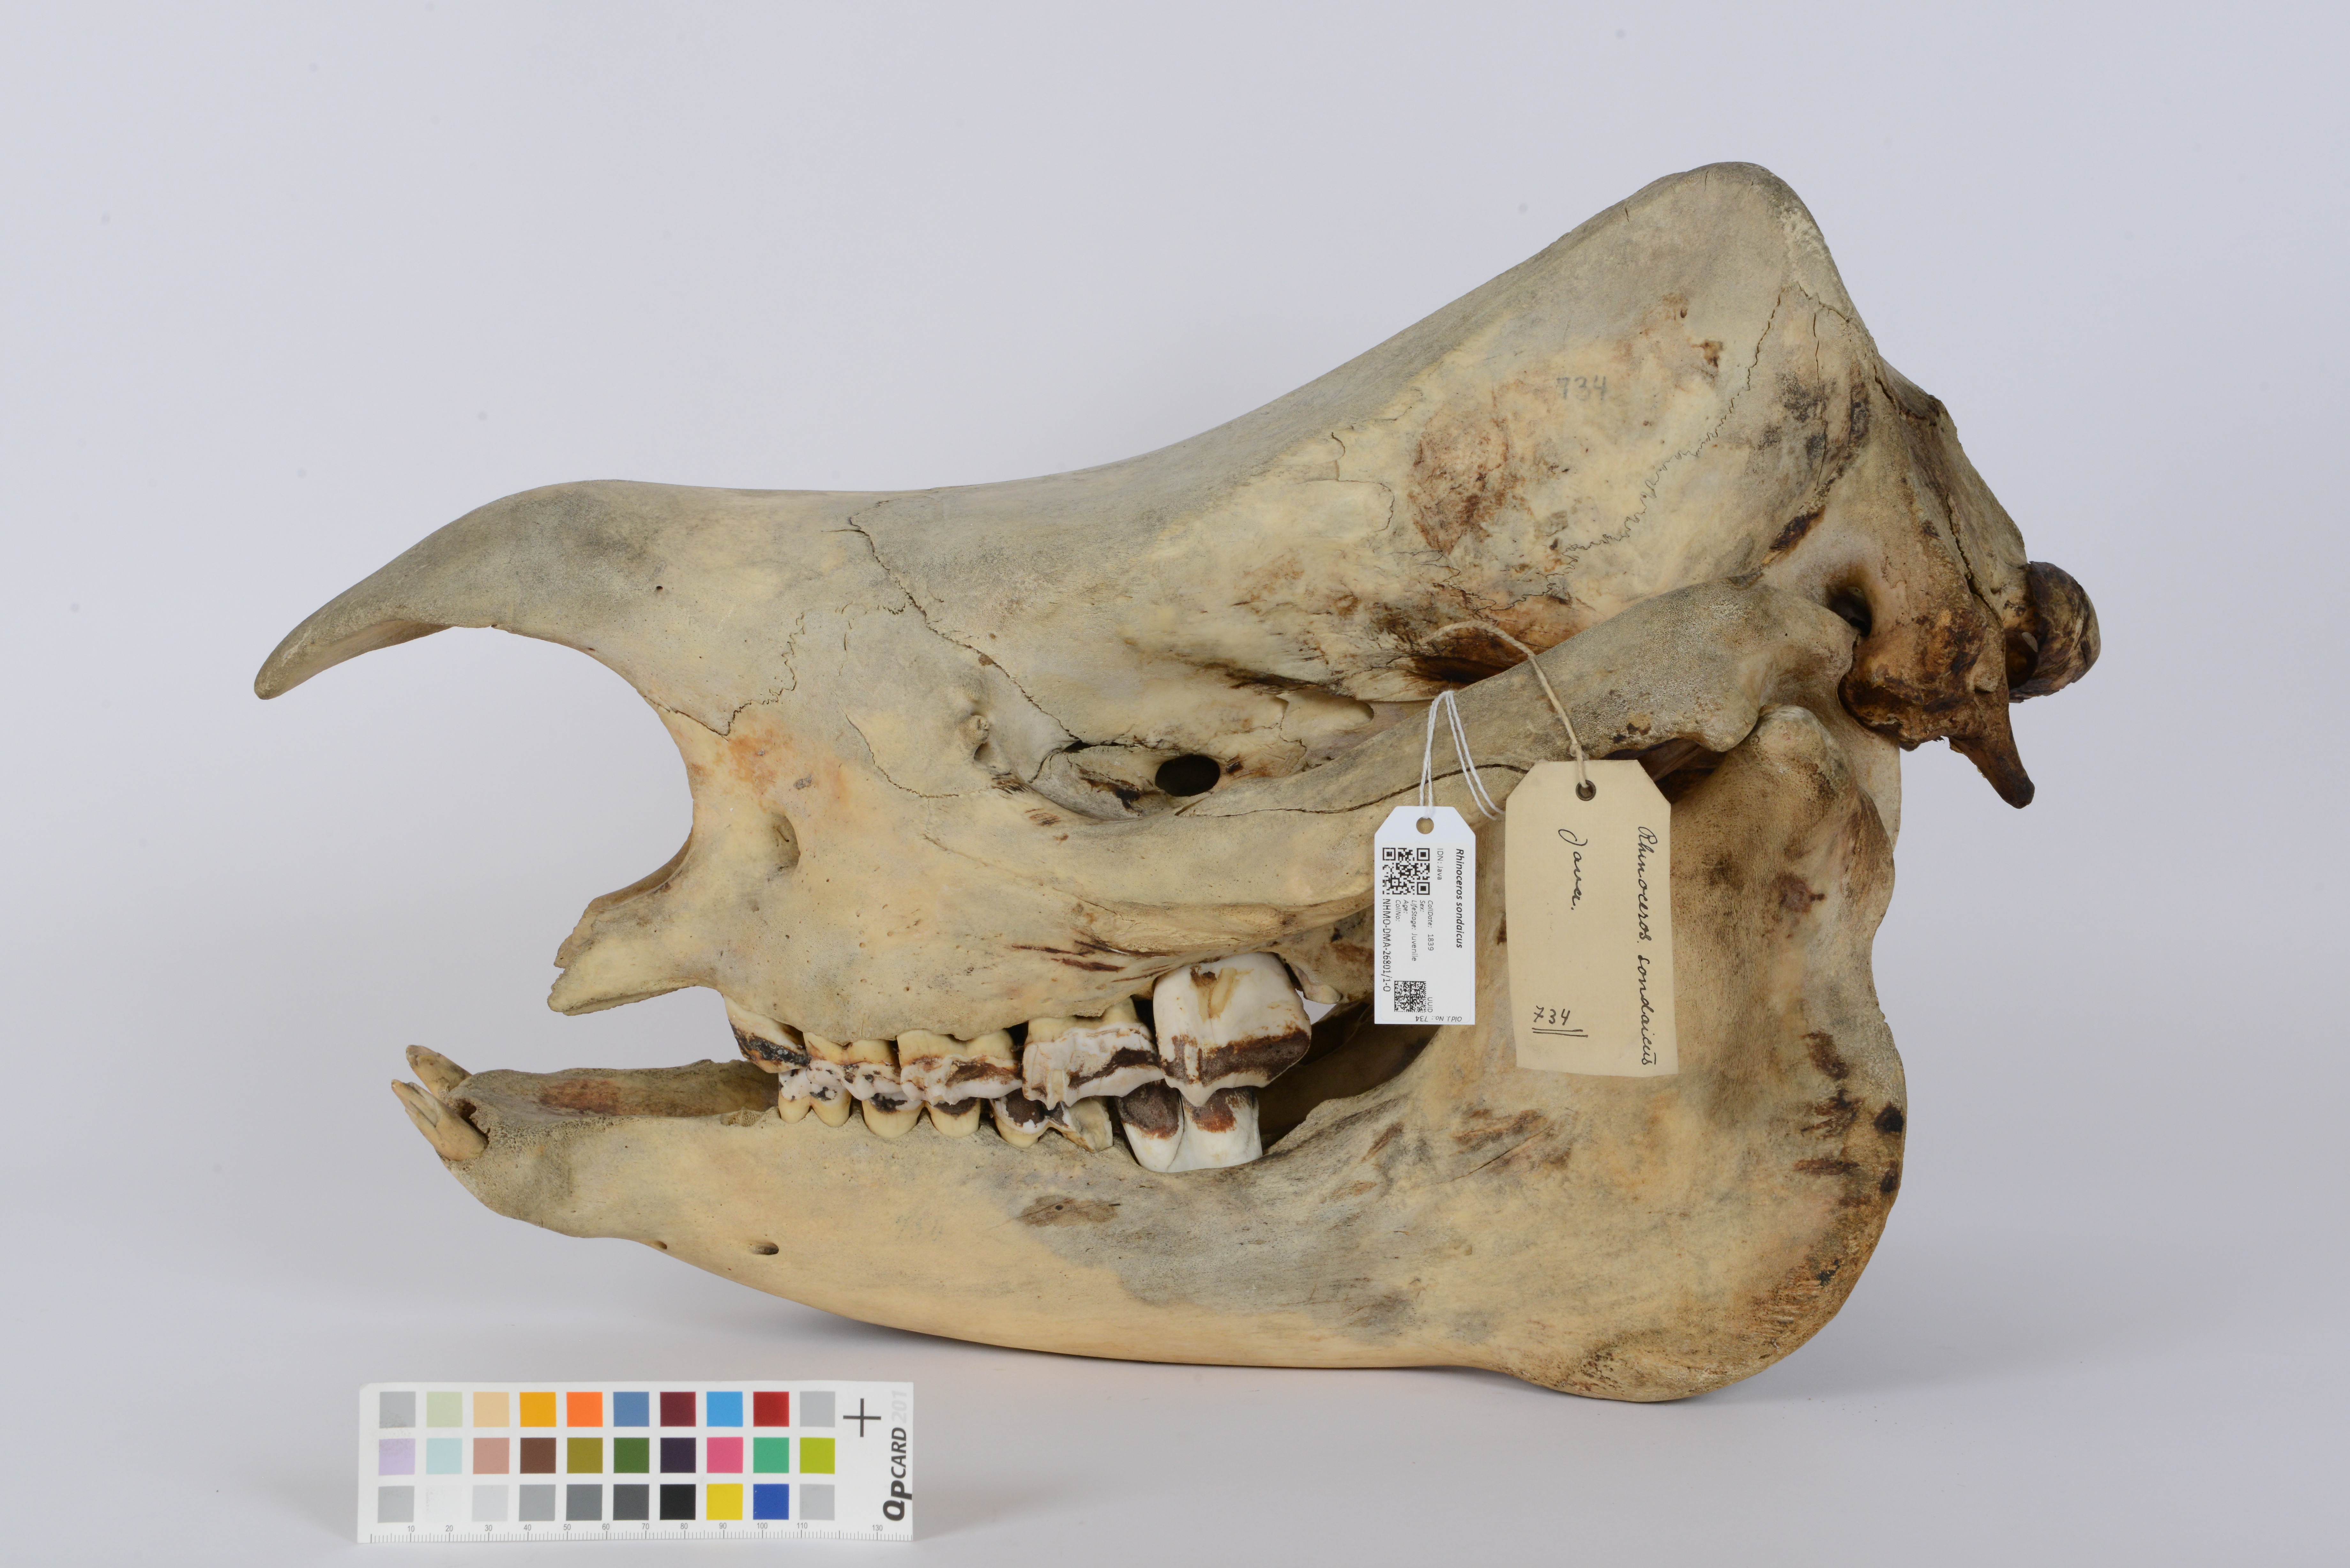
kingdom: Animalia
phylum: Chordata
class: Mammalia
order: Perissodactyla
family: Rhinocerotidae
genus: Rhinoceros
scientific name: Rhinoceros sondaicus
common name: Javan rhinoceros
